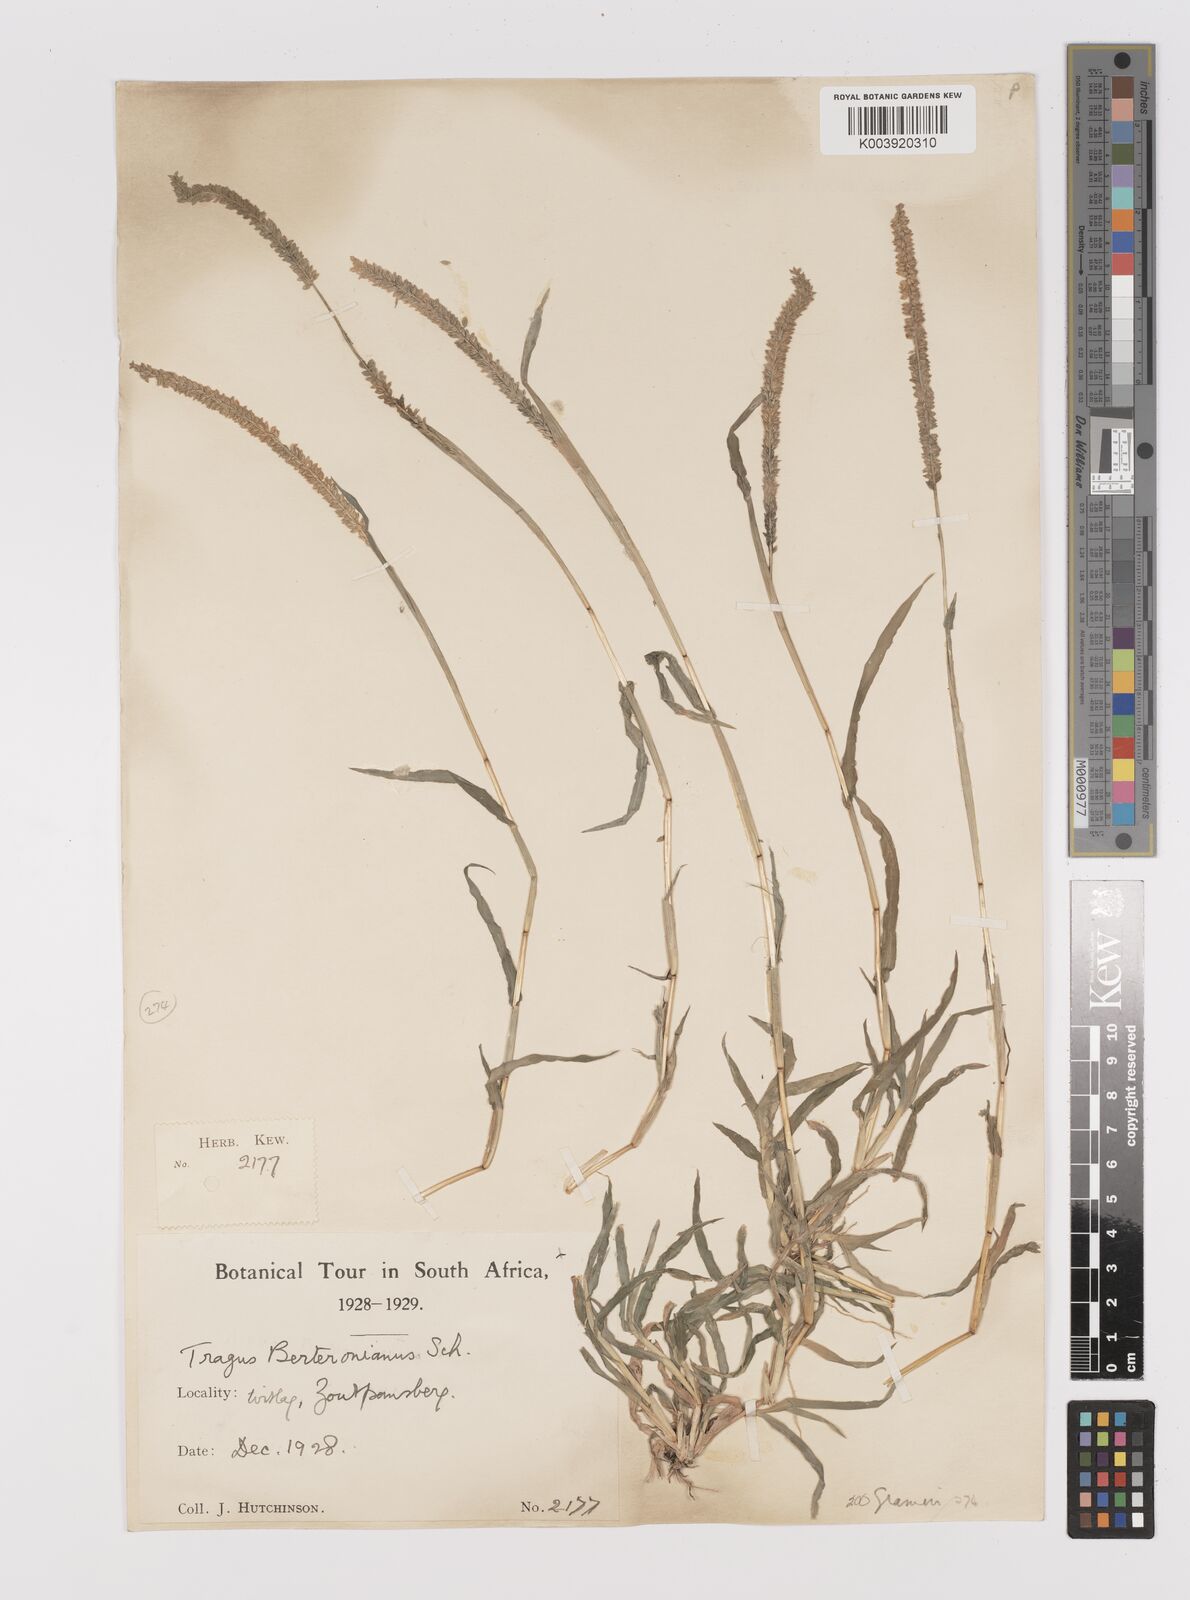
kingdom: Plantae
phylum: Tracheophyta
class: Liliopsida
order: Poales
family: Poaceae
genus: Tragus
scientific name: Tragus berteronianus
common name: African bur-grass
